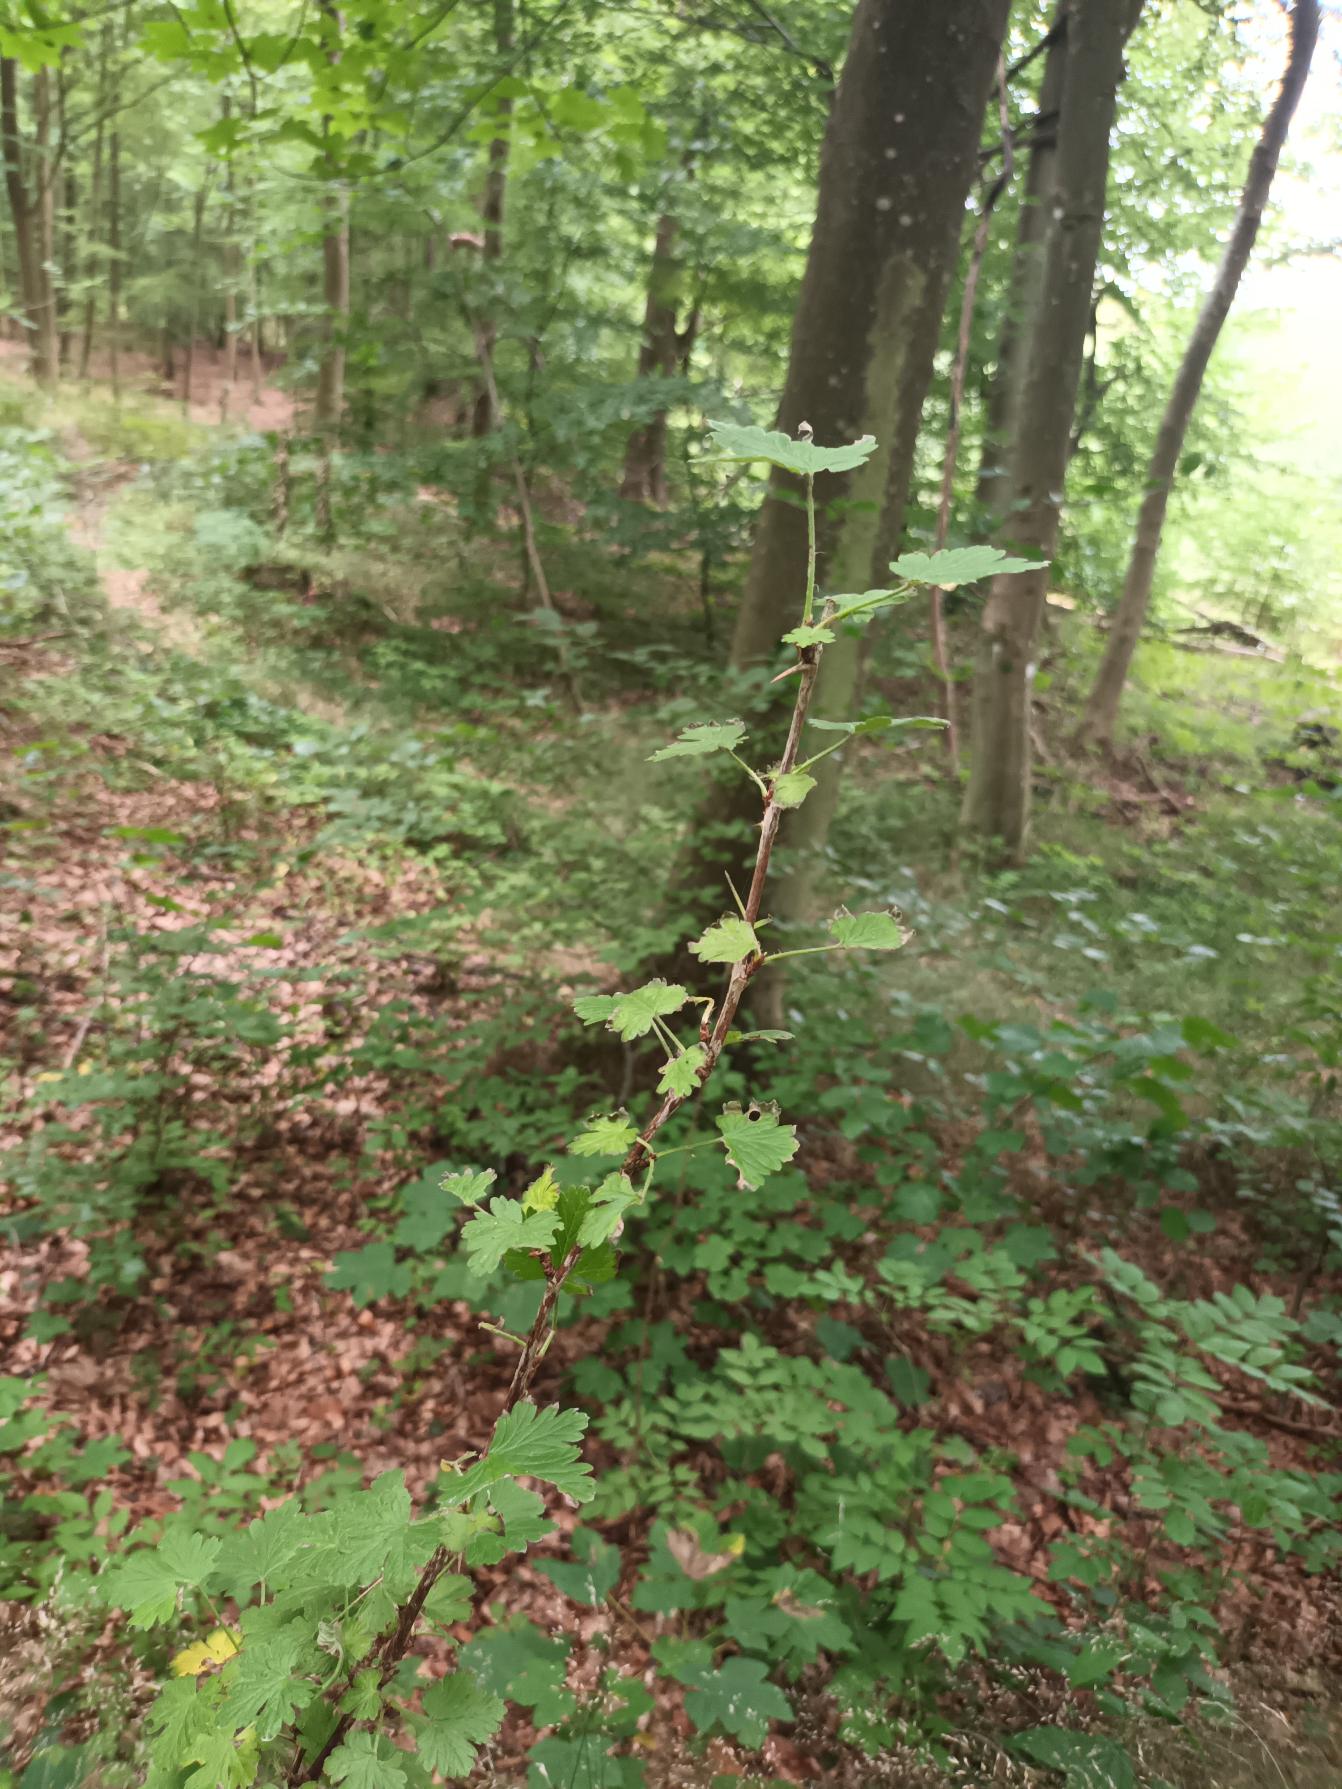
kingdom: Plantae
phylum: Tracheophyta
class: Magnoliopsida
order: Saxifragales
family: Grossulariaceae
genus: Ribes
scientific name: Ribes uva-crispa
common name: Stikkelsbær
